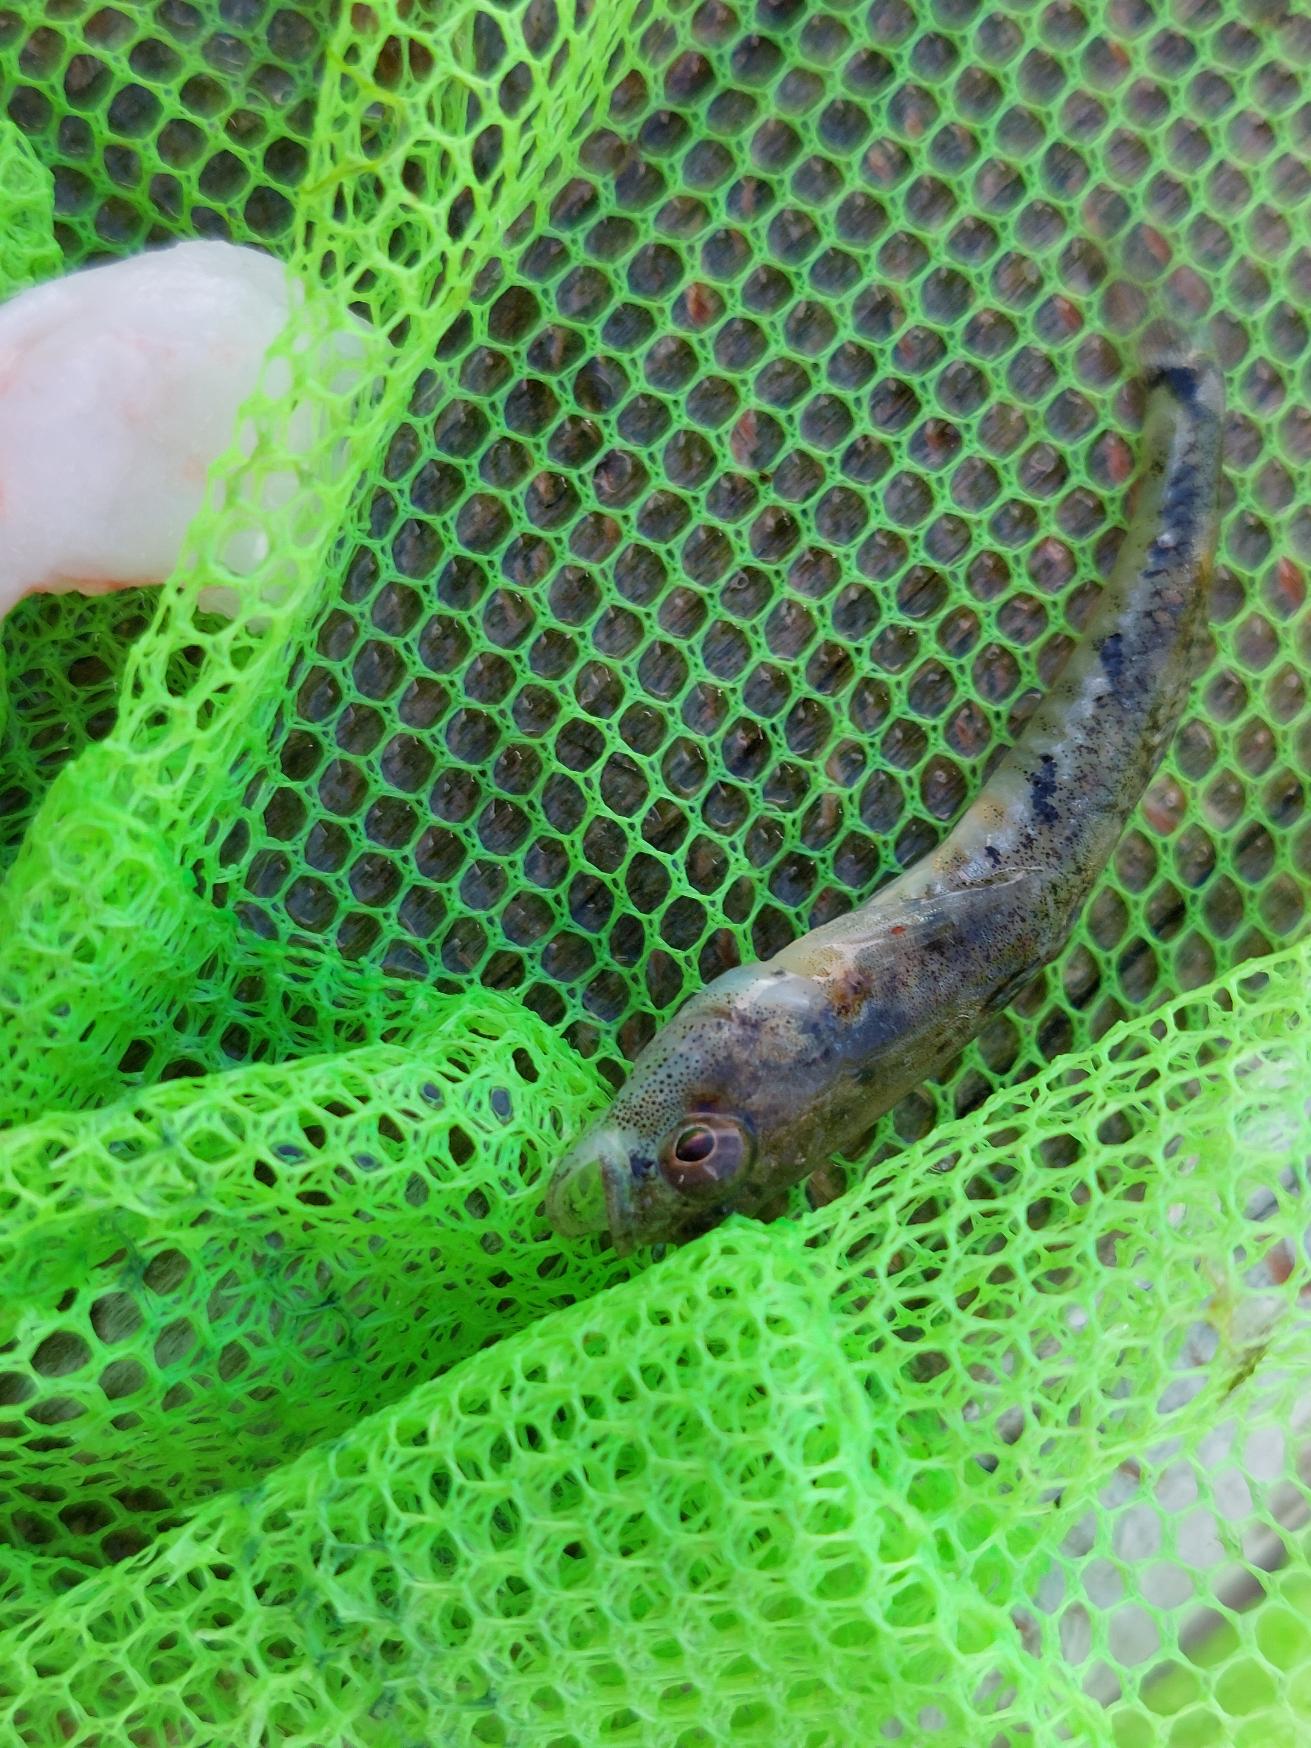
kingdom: Animalia
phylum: Chordata
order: Perciformes
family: Gobiidae
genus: Pomatoschistus
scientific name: Pomatoschistus minutus
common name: Sandkutling
